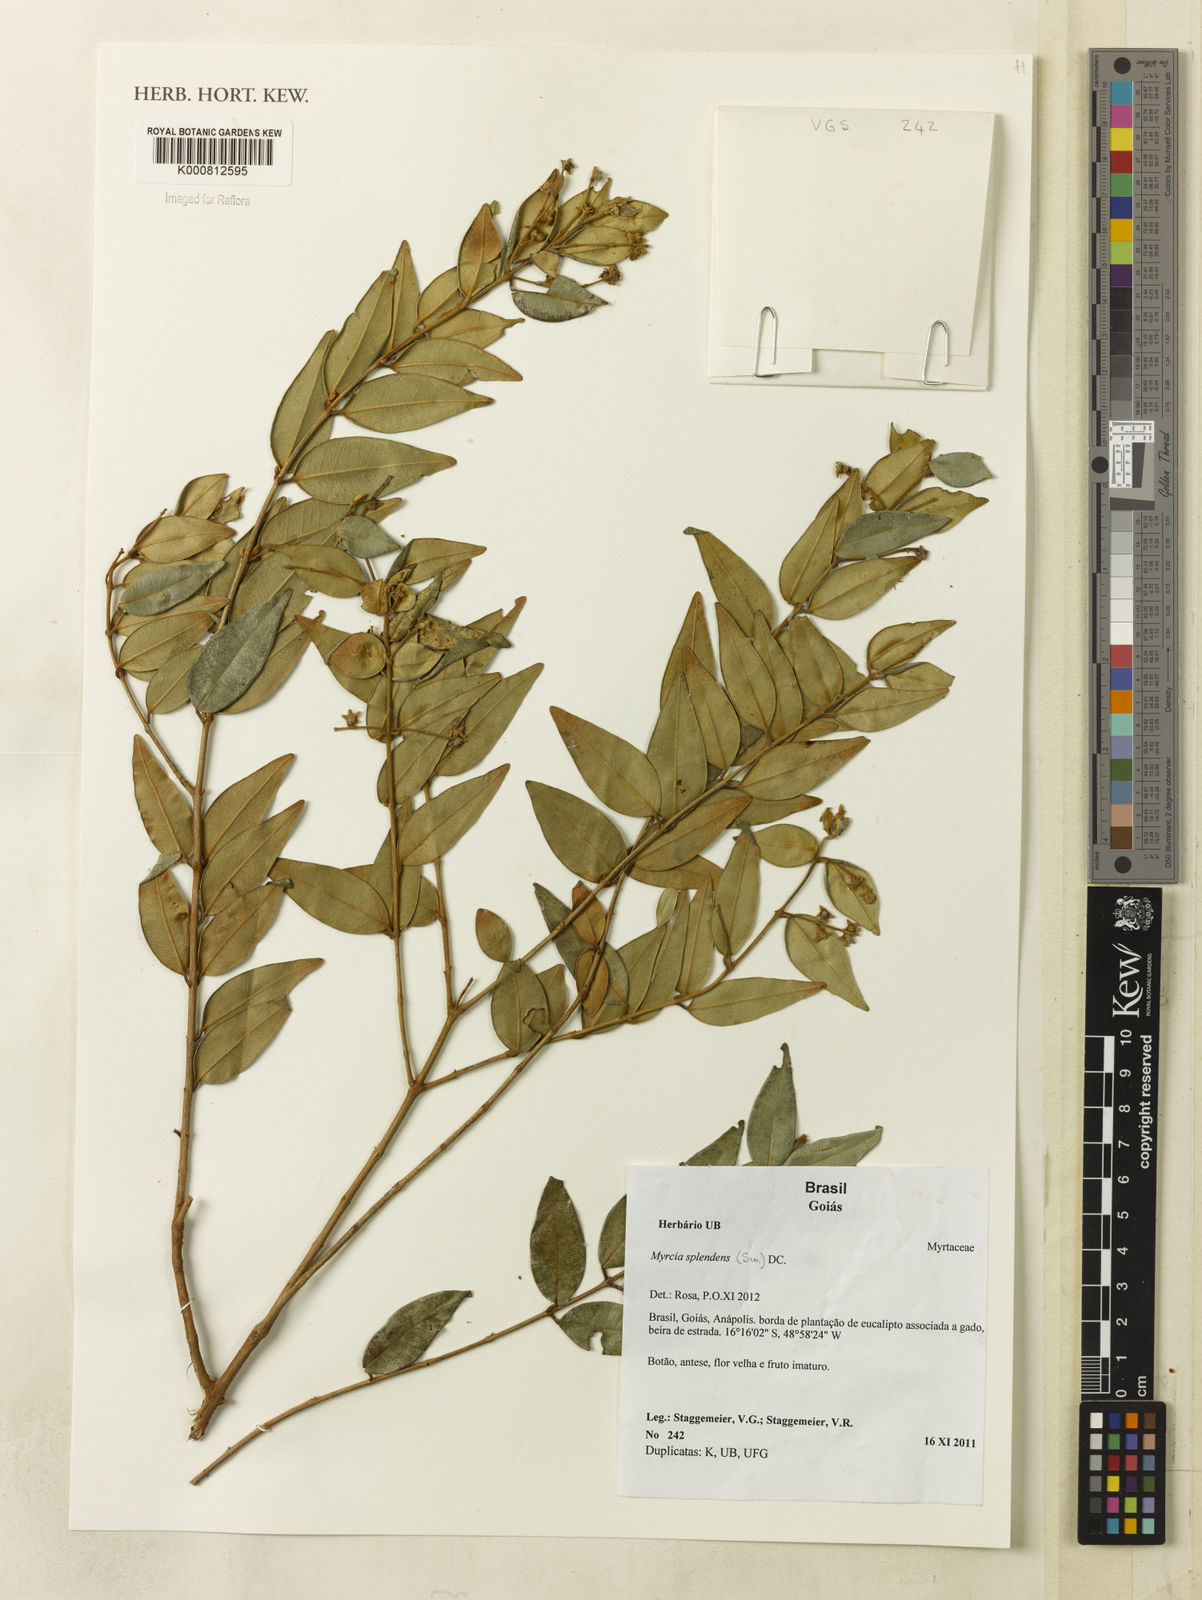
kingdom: Plantae
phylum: Tracheophyta
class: Magnoliopsida
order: Myrtales
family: Myrtaceae
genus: Myrcia
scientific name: Myrcia splendens
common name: Surinam cherry
